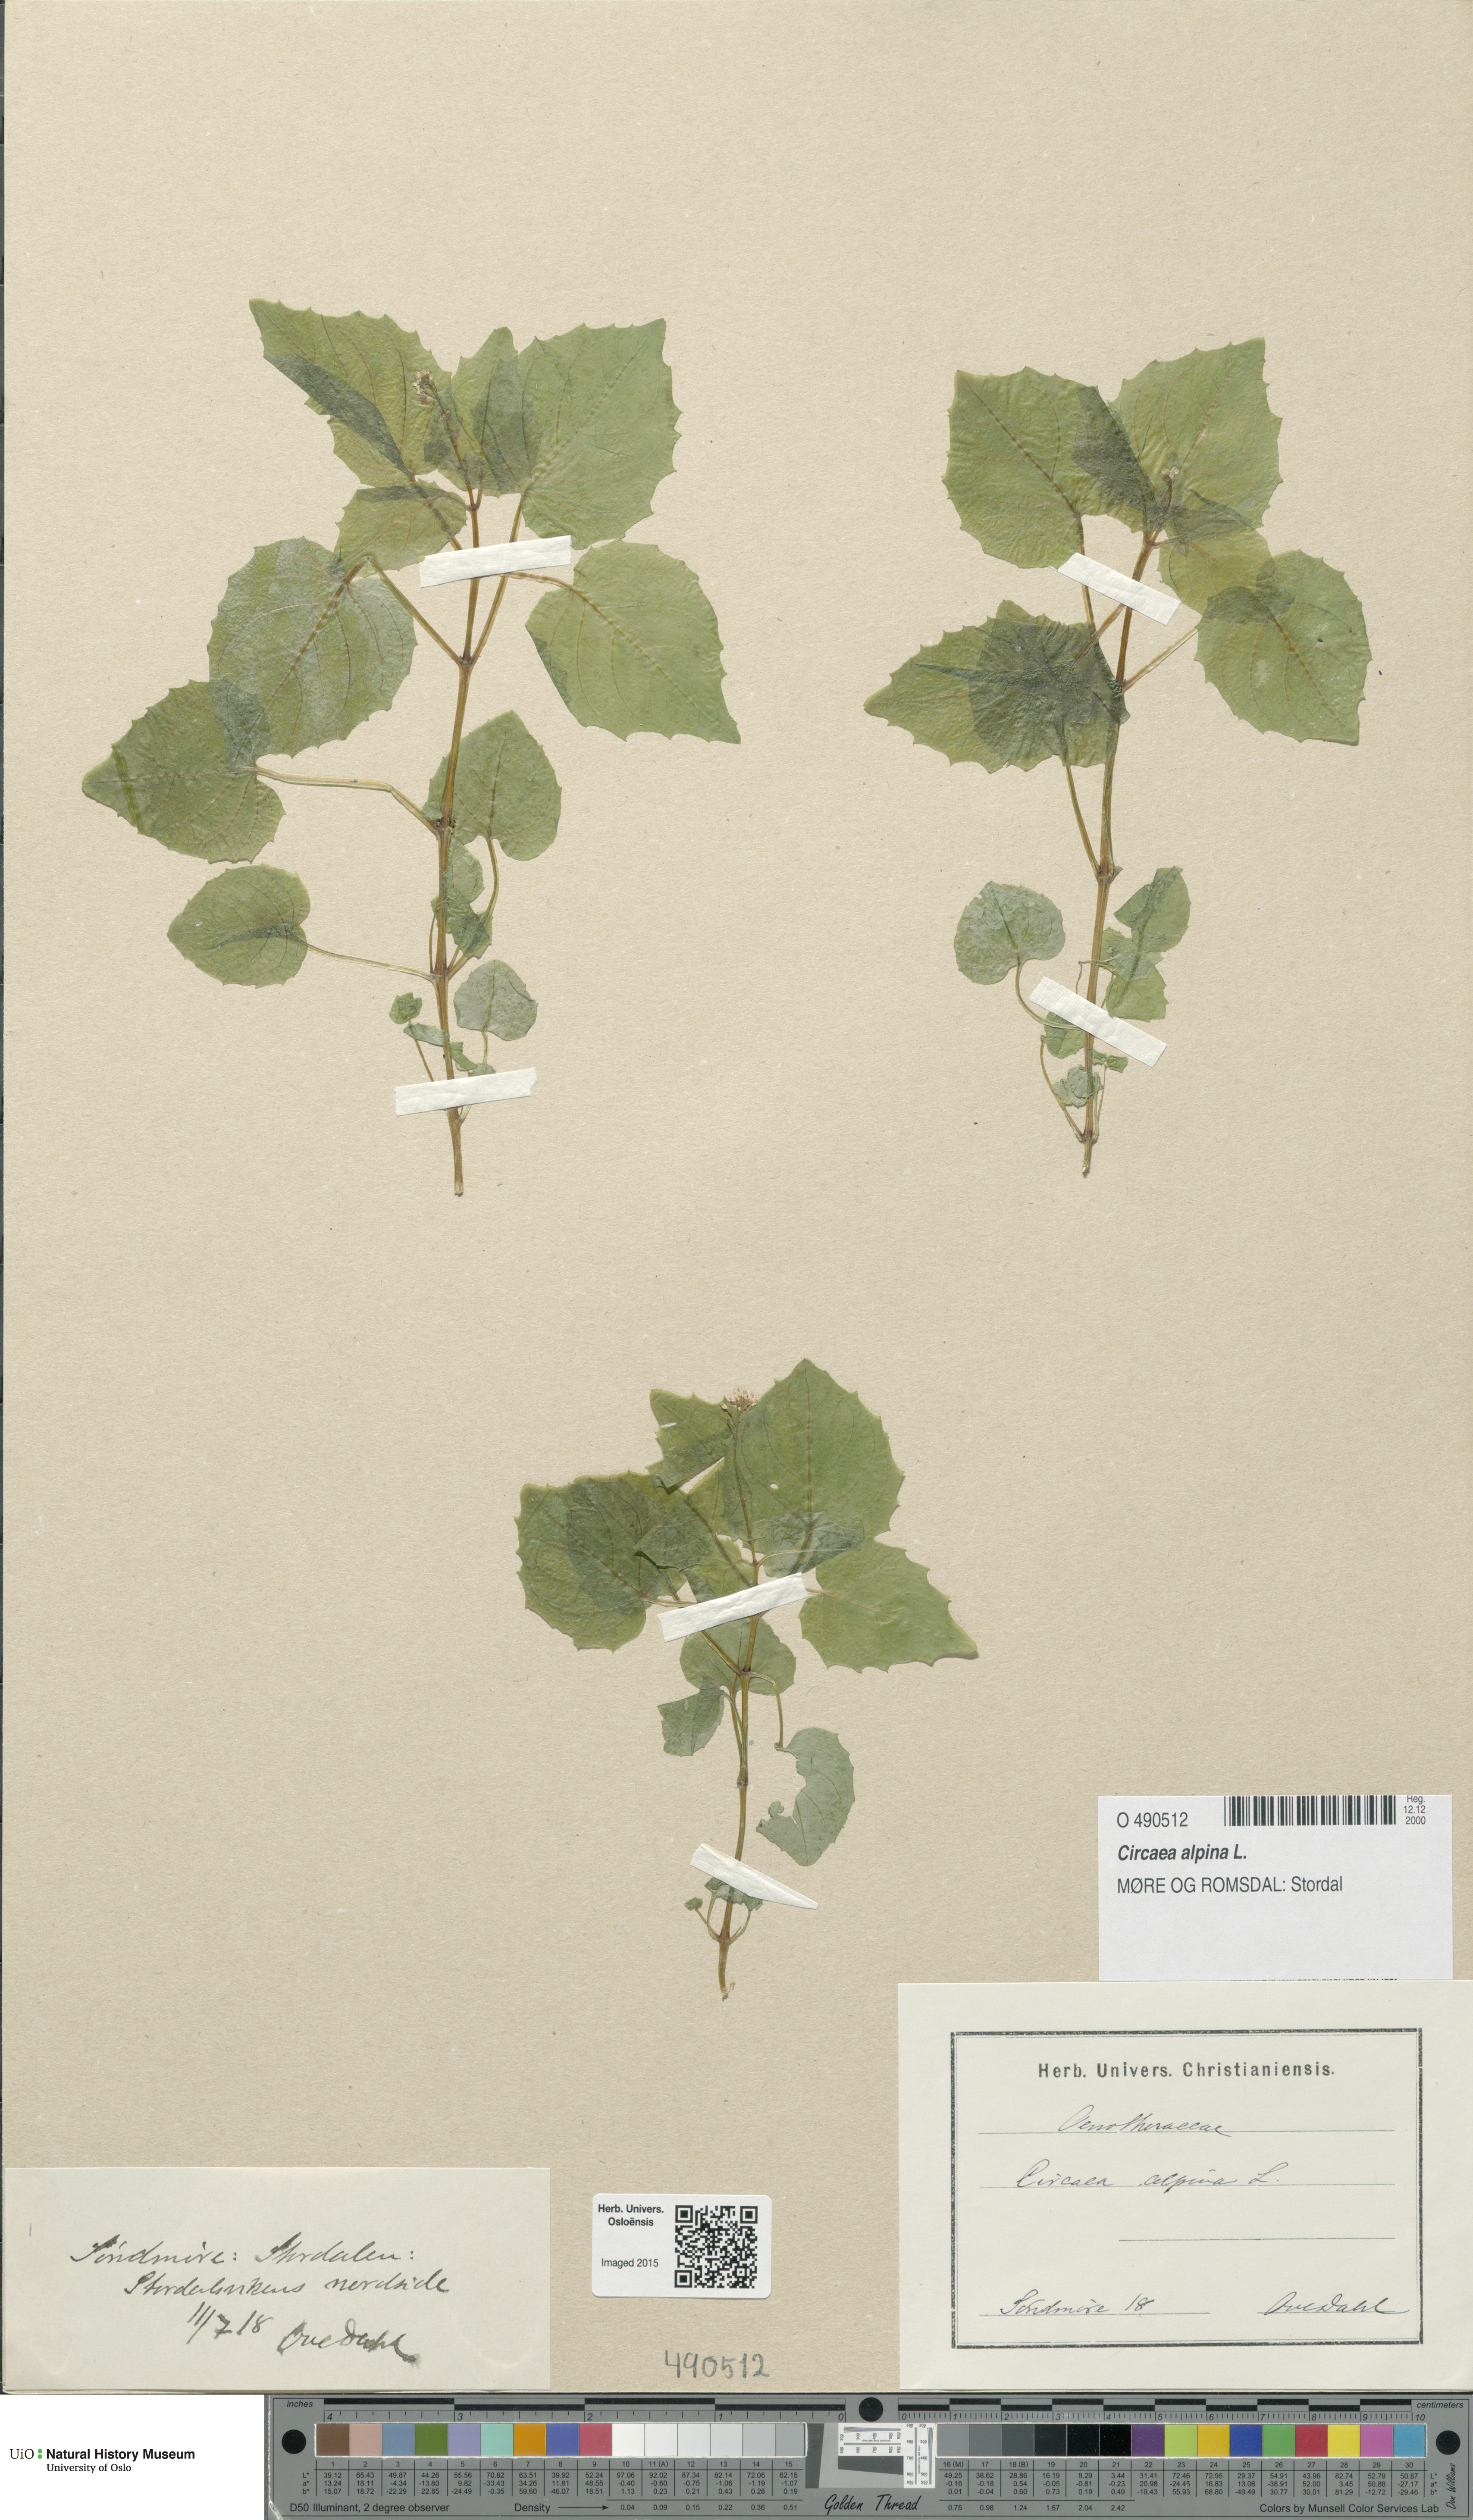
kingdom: Plantae
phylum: Tracheophyta
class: Magnoliopsida
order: Myrtales
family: Onagraceae
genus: Circaea
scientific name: Circaea alpina
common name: Alpine enchanter's-nightshade
